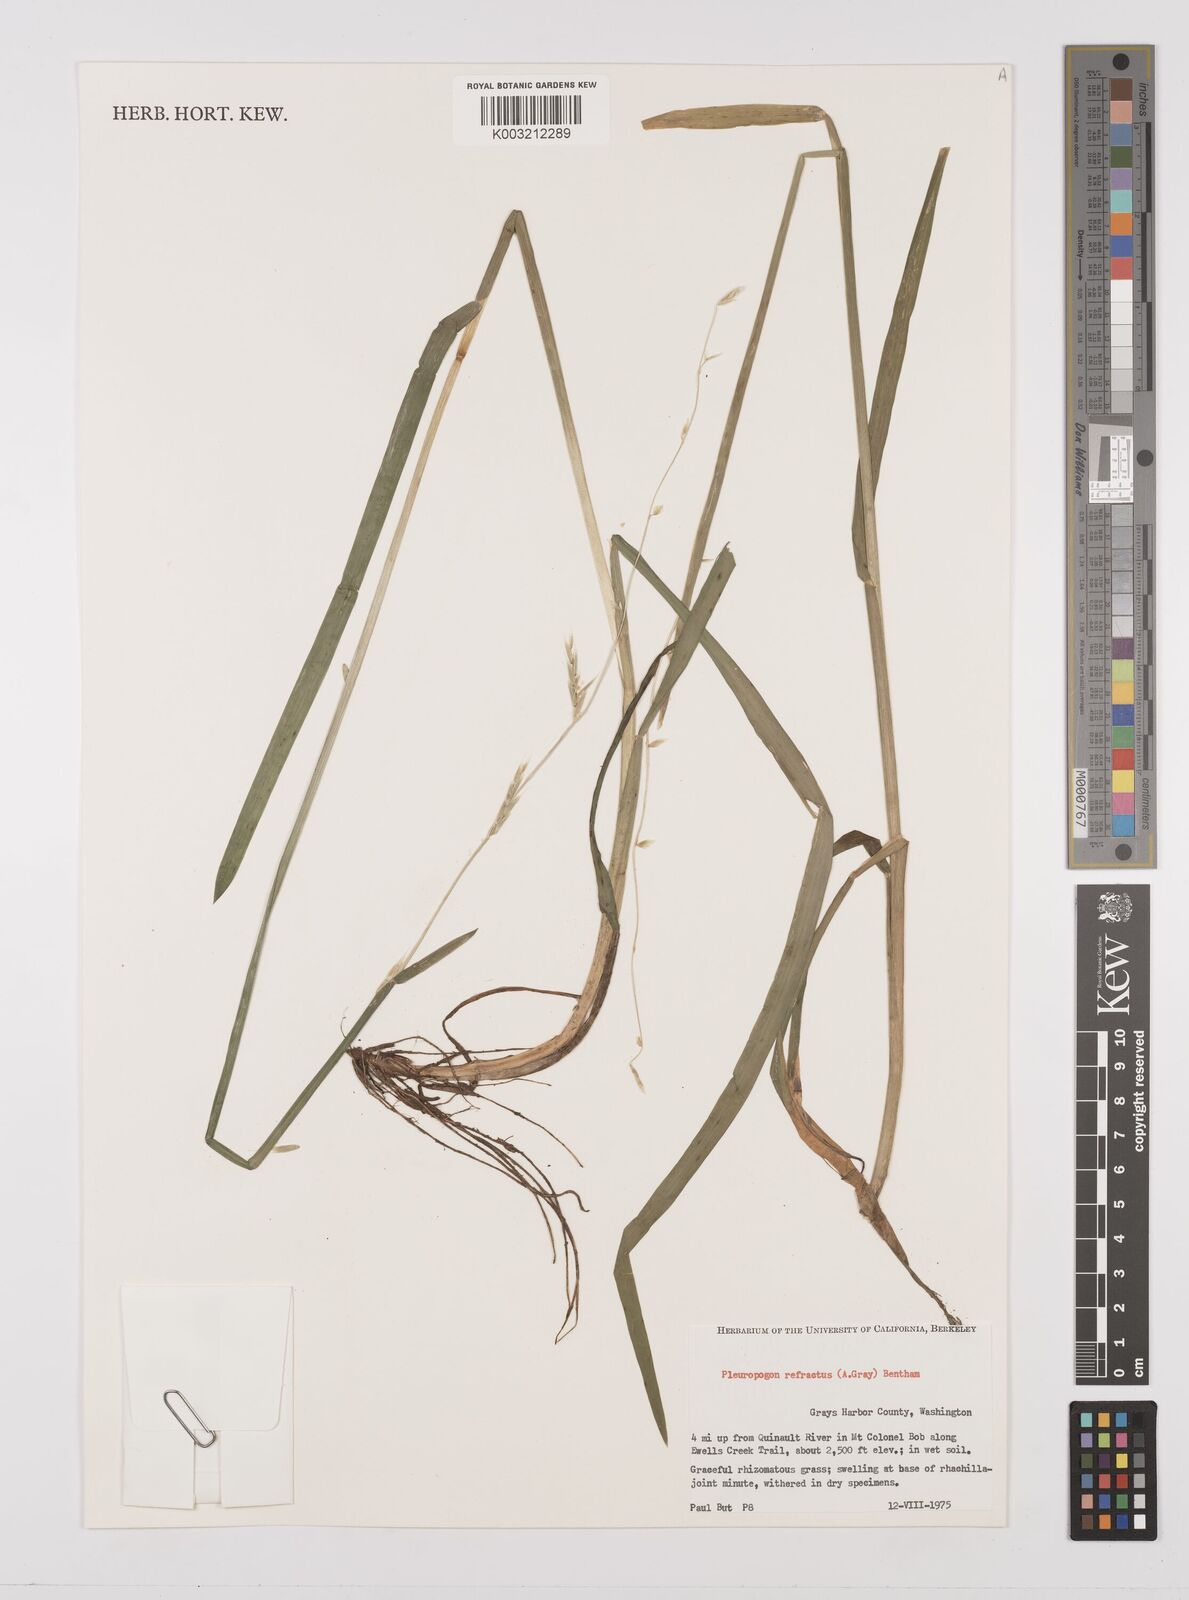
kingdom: Plantae
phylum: Tracheophyta
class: Liliopsida
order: Poales
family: Poaceae
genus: Pleuropogon
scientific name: Pleuropogon refractus
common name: Nodding false semaphoregrass
